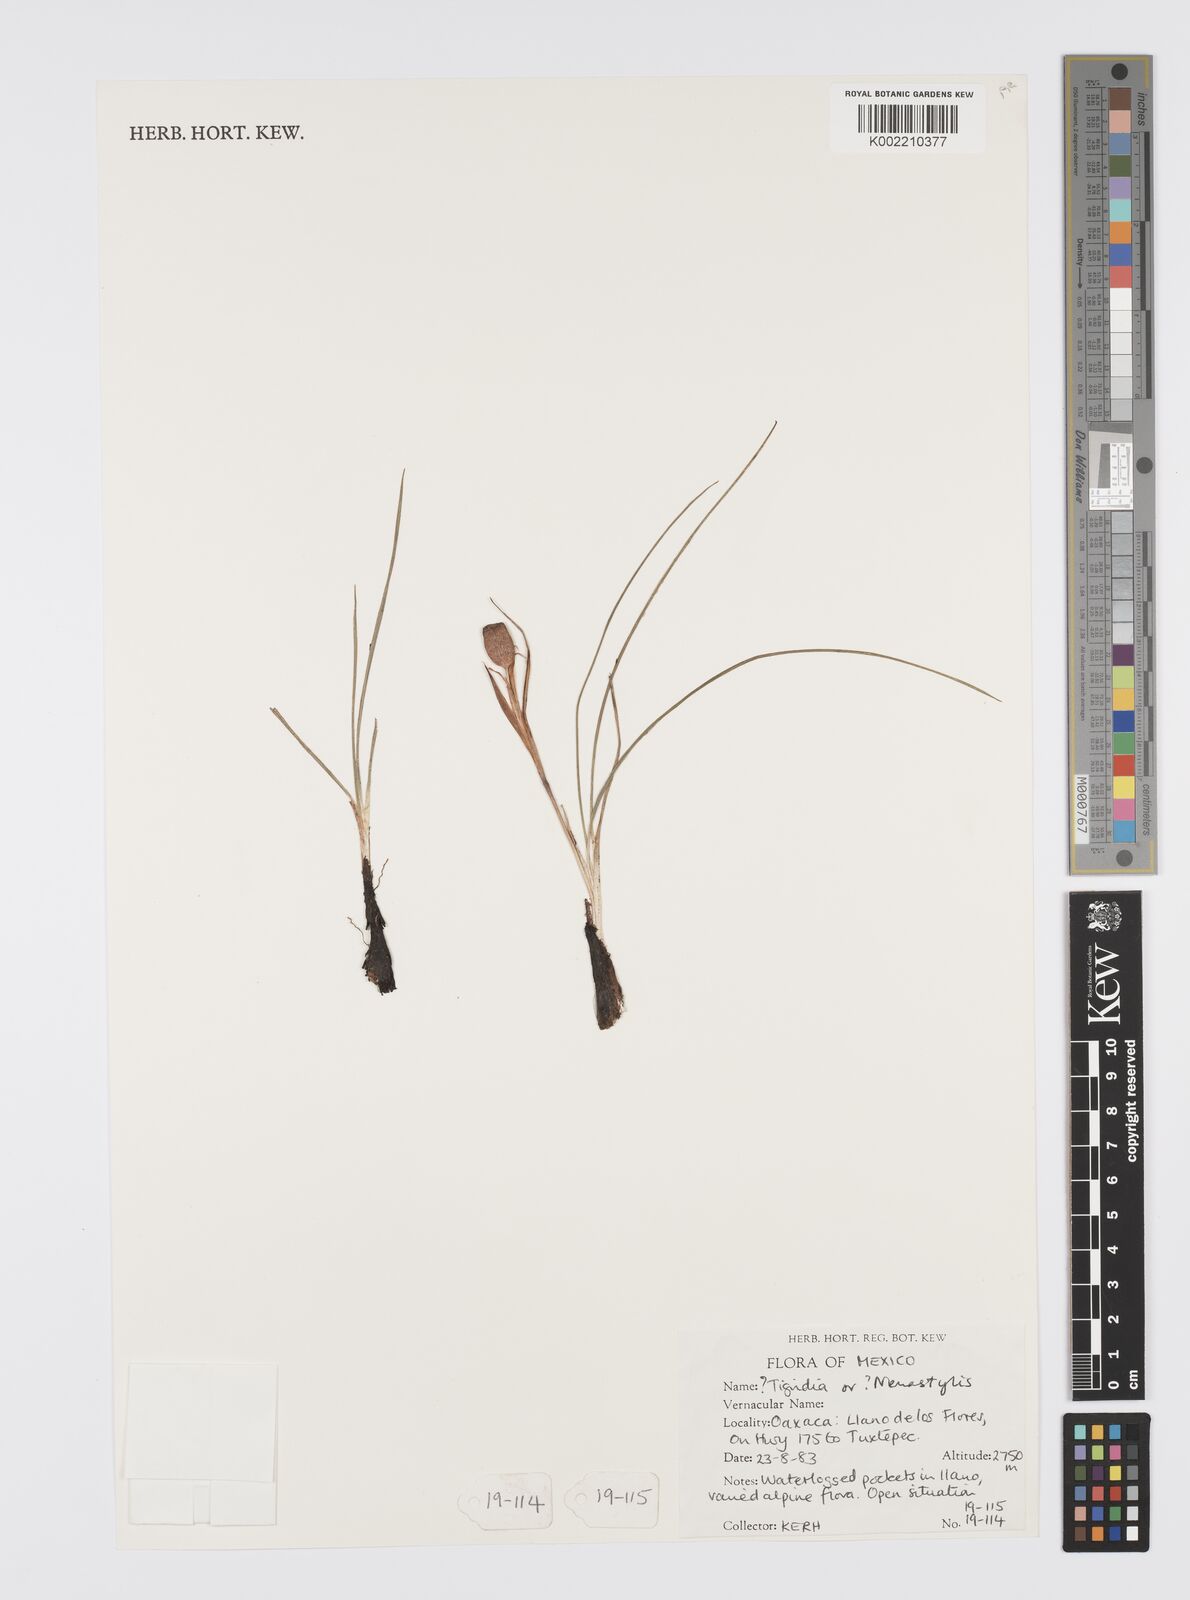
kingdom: Plantae
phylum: Tracheophyta
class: Liliopsida
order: Asparagales
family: Iridaceae
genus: Tigridia
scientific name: Tigridia
